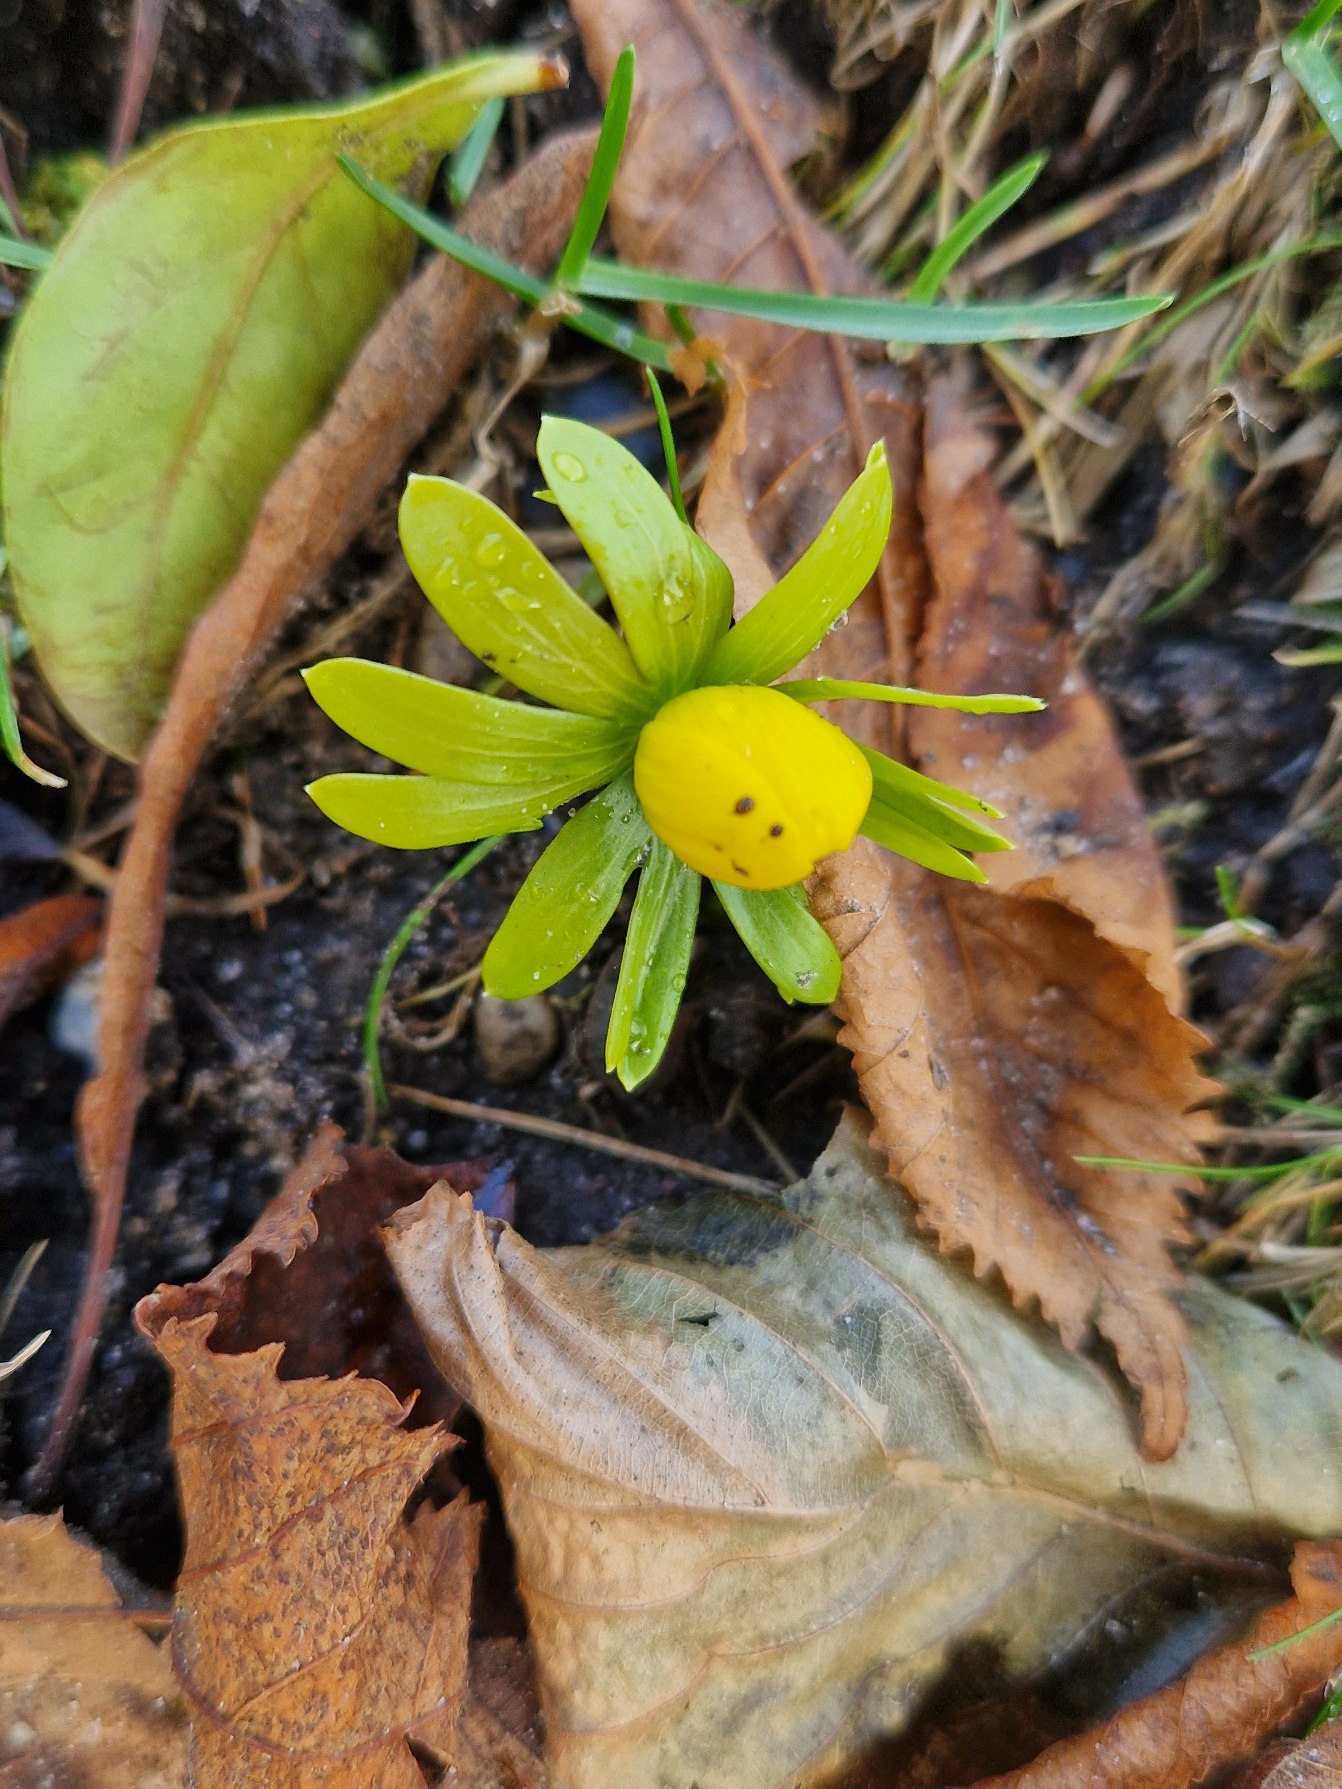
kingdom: Plantae
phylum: Tracheophyta
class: Magnoliopsida
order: Ranunculales
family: Ranunculaceae
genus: Eranthis
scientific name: Eranthis hyemalis
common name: Erantis
